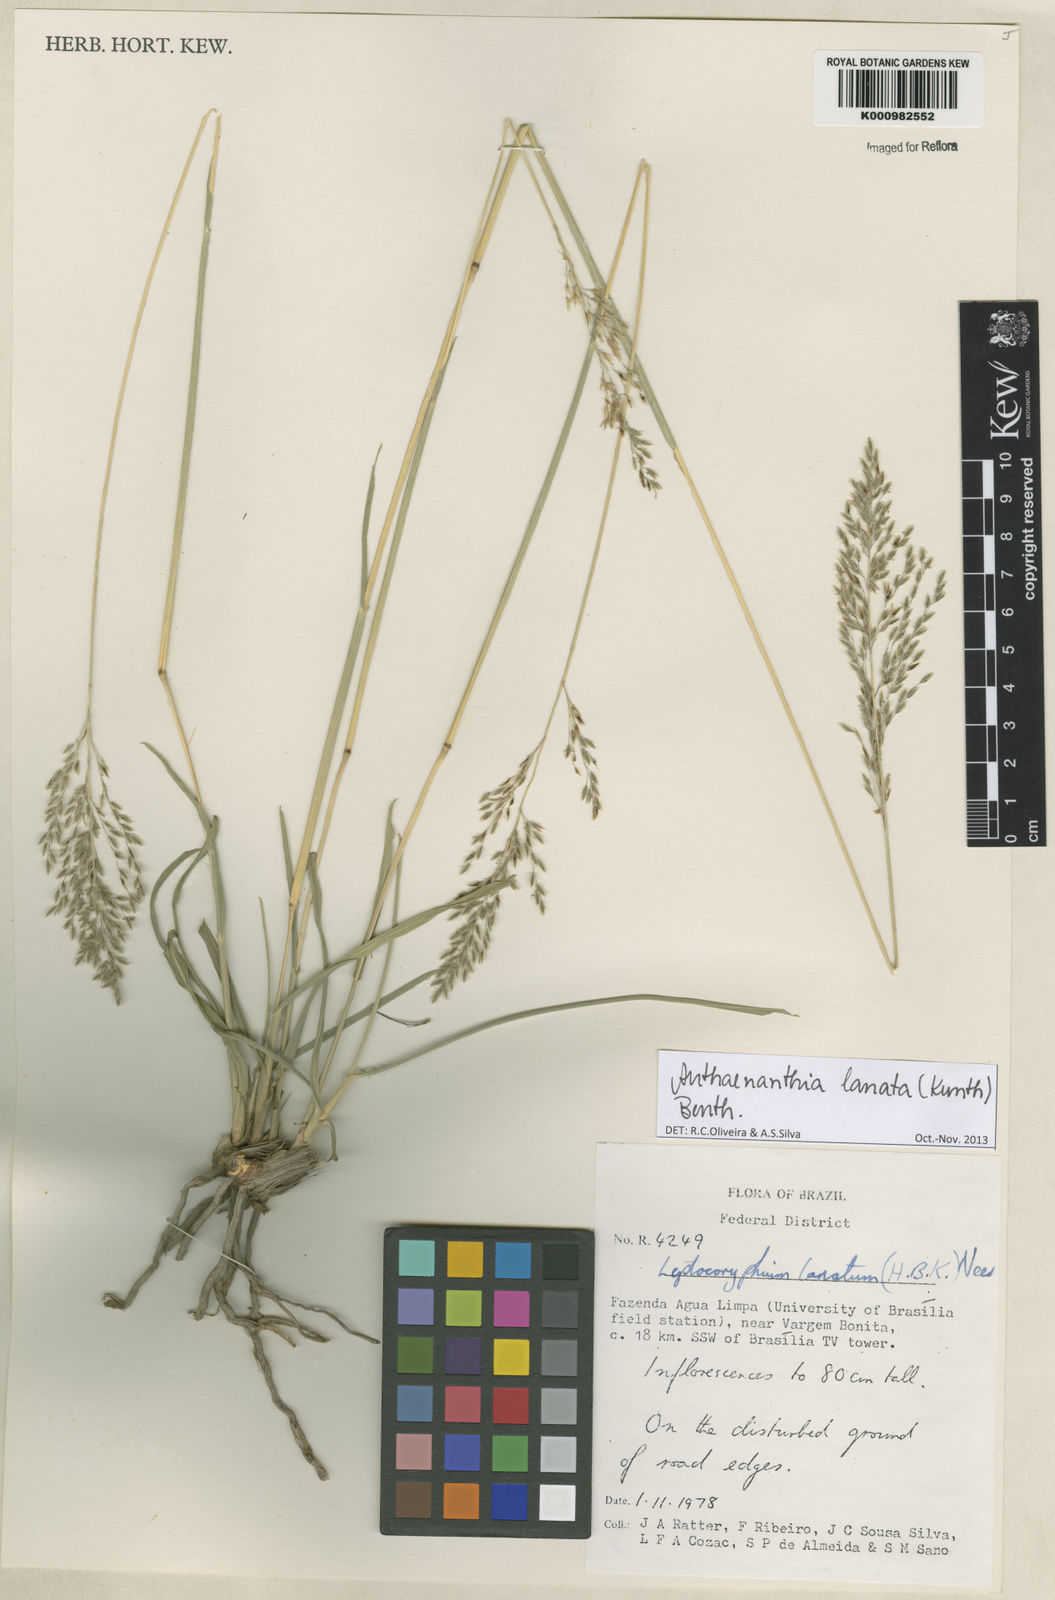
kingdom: Plantae
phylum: Tracheophyta
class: Liliopsida
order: Poales
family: Poaceae
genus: Anthenantia
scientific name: Anthenantia lanata
